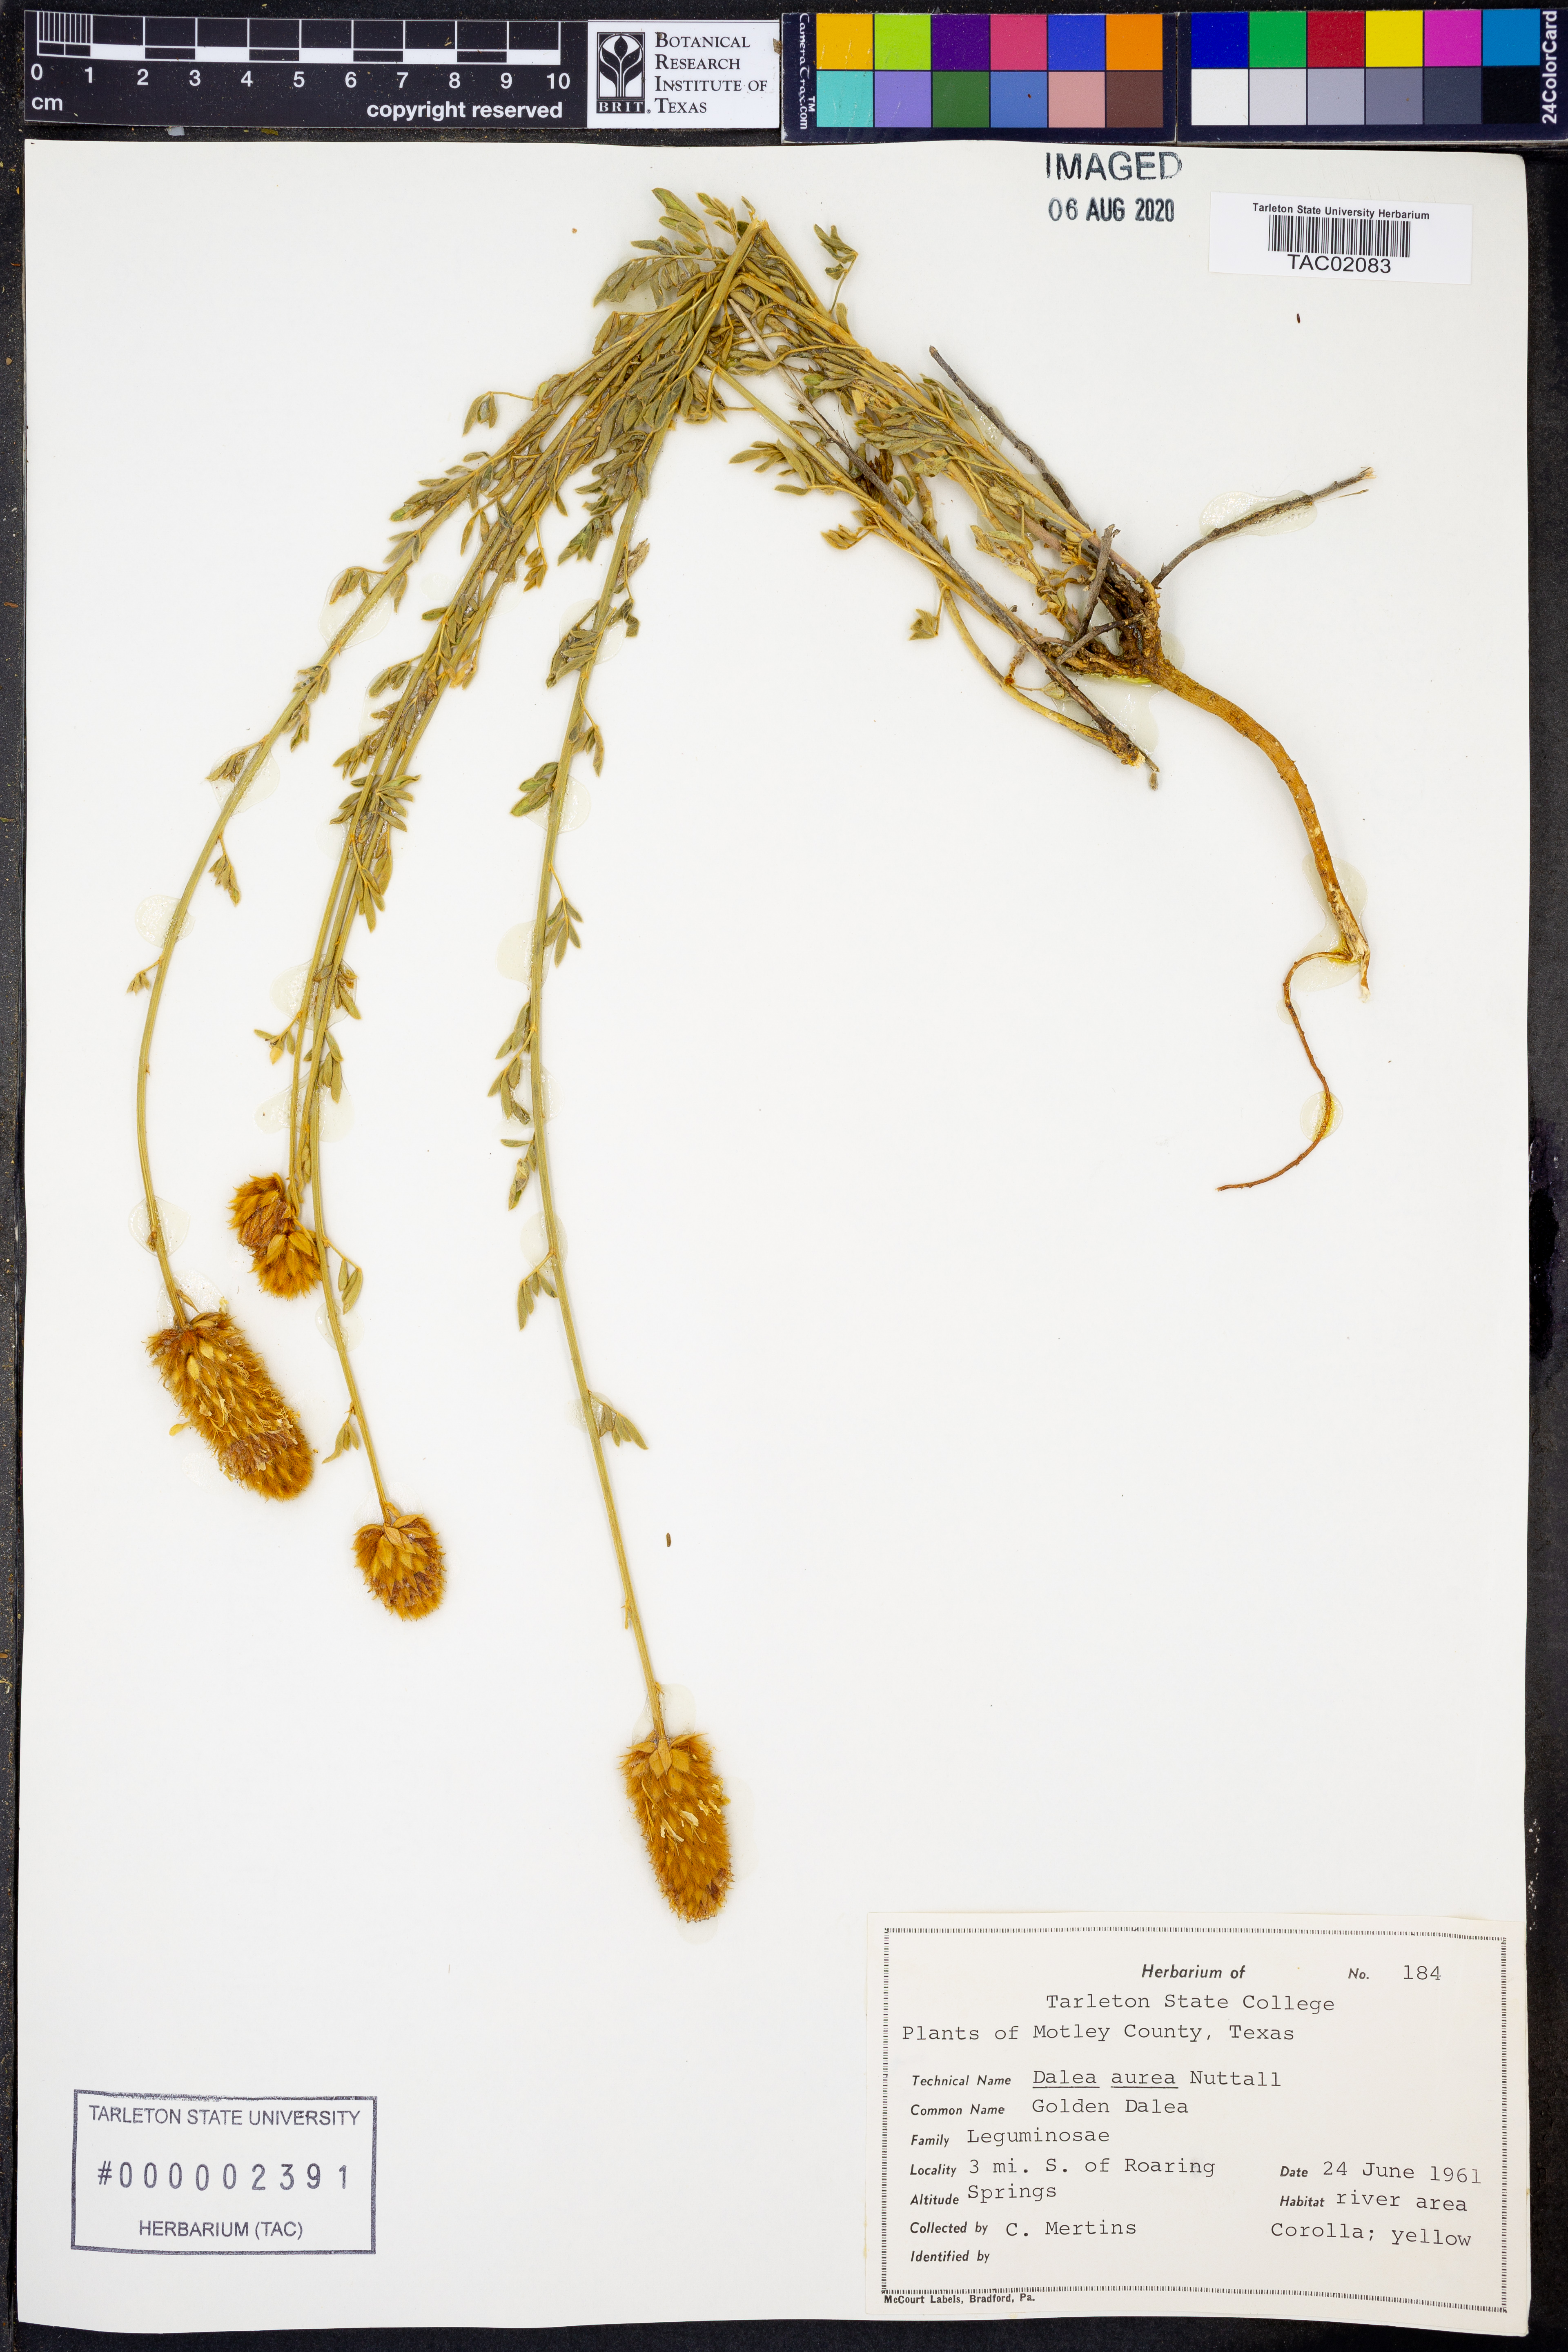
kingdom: Plantae
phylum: Tracheophyta
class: Magnoliopsida
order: Fabales
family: Fabaceae
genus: Dalea
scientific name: Dalea aurea
